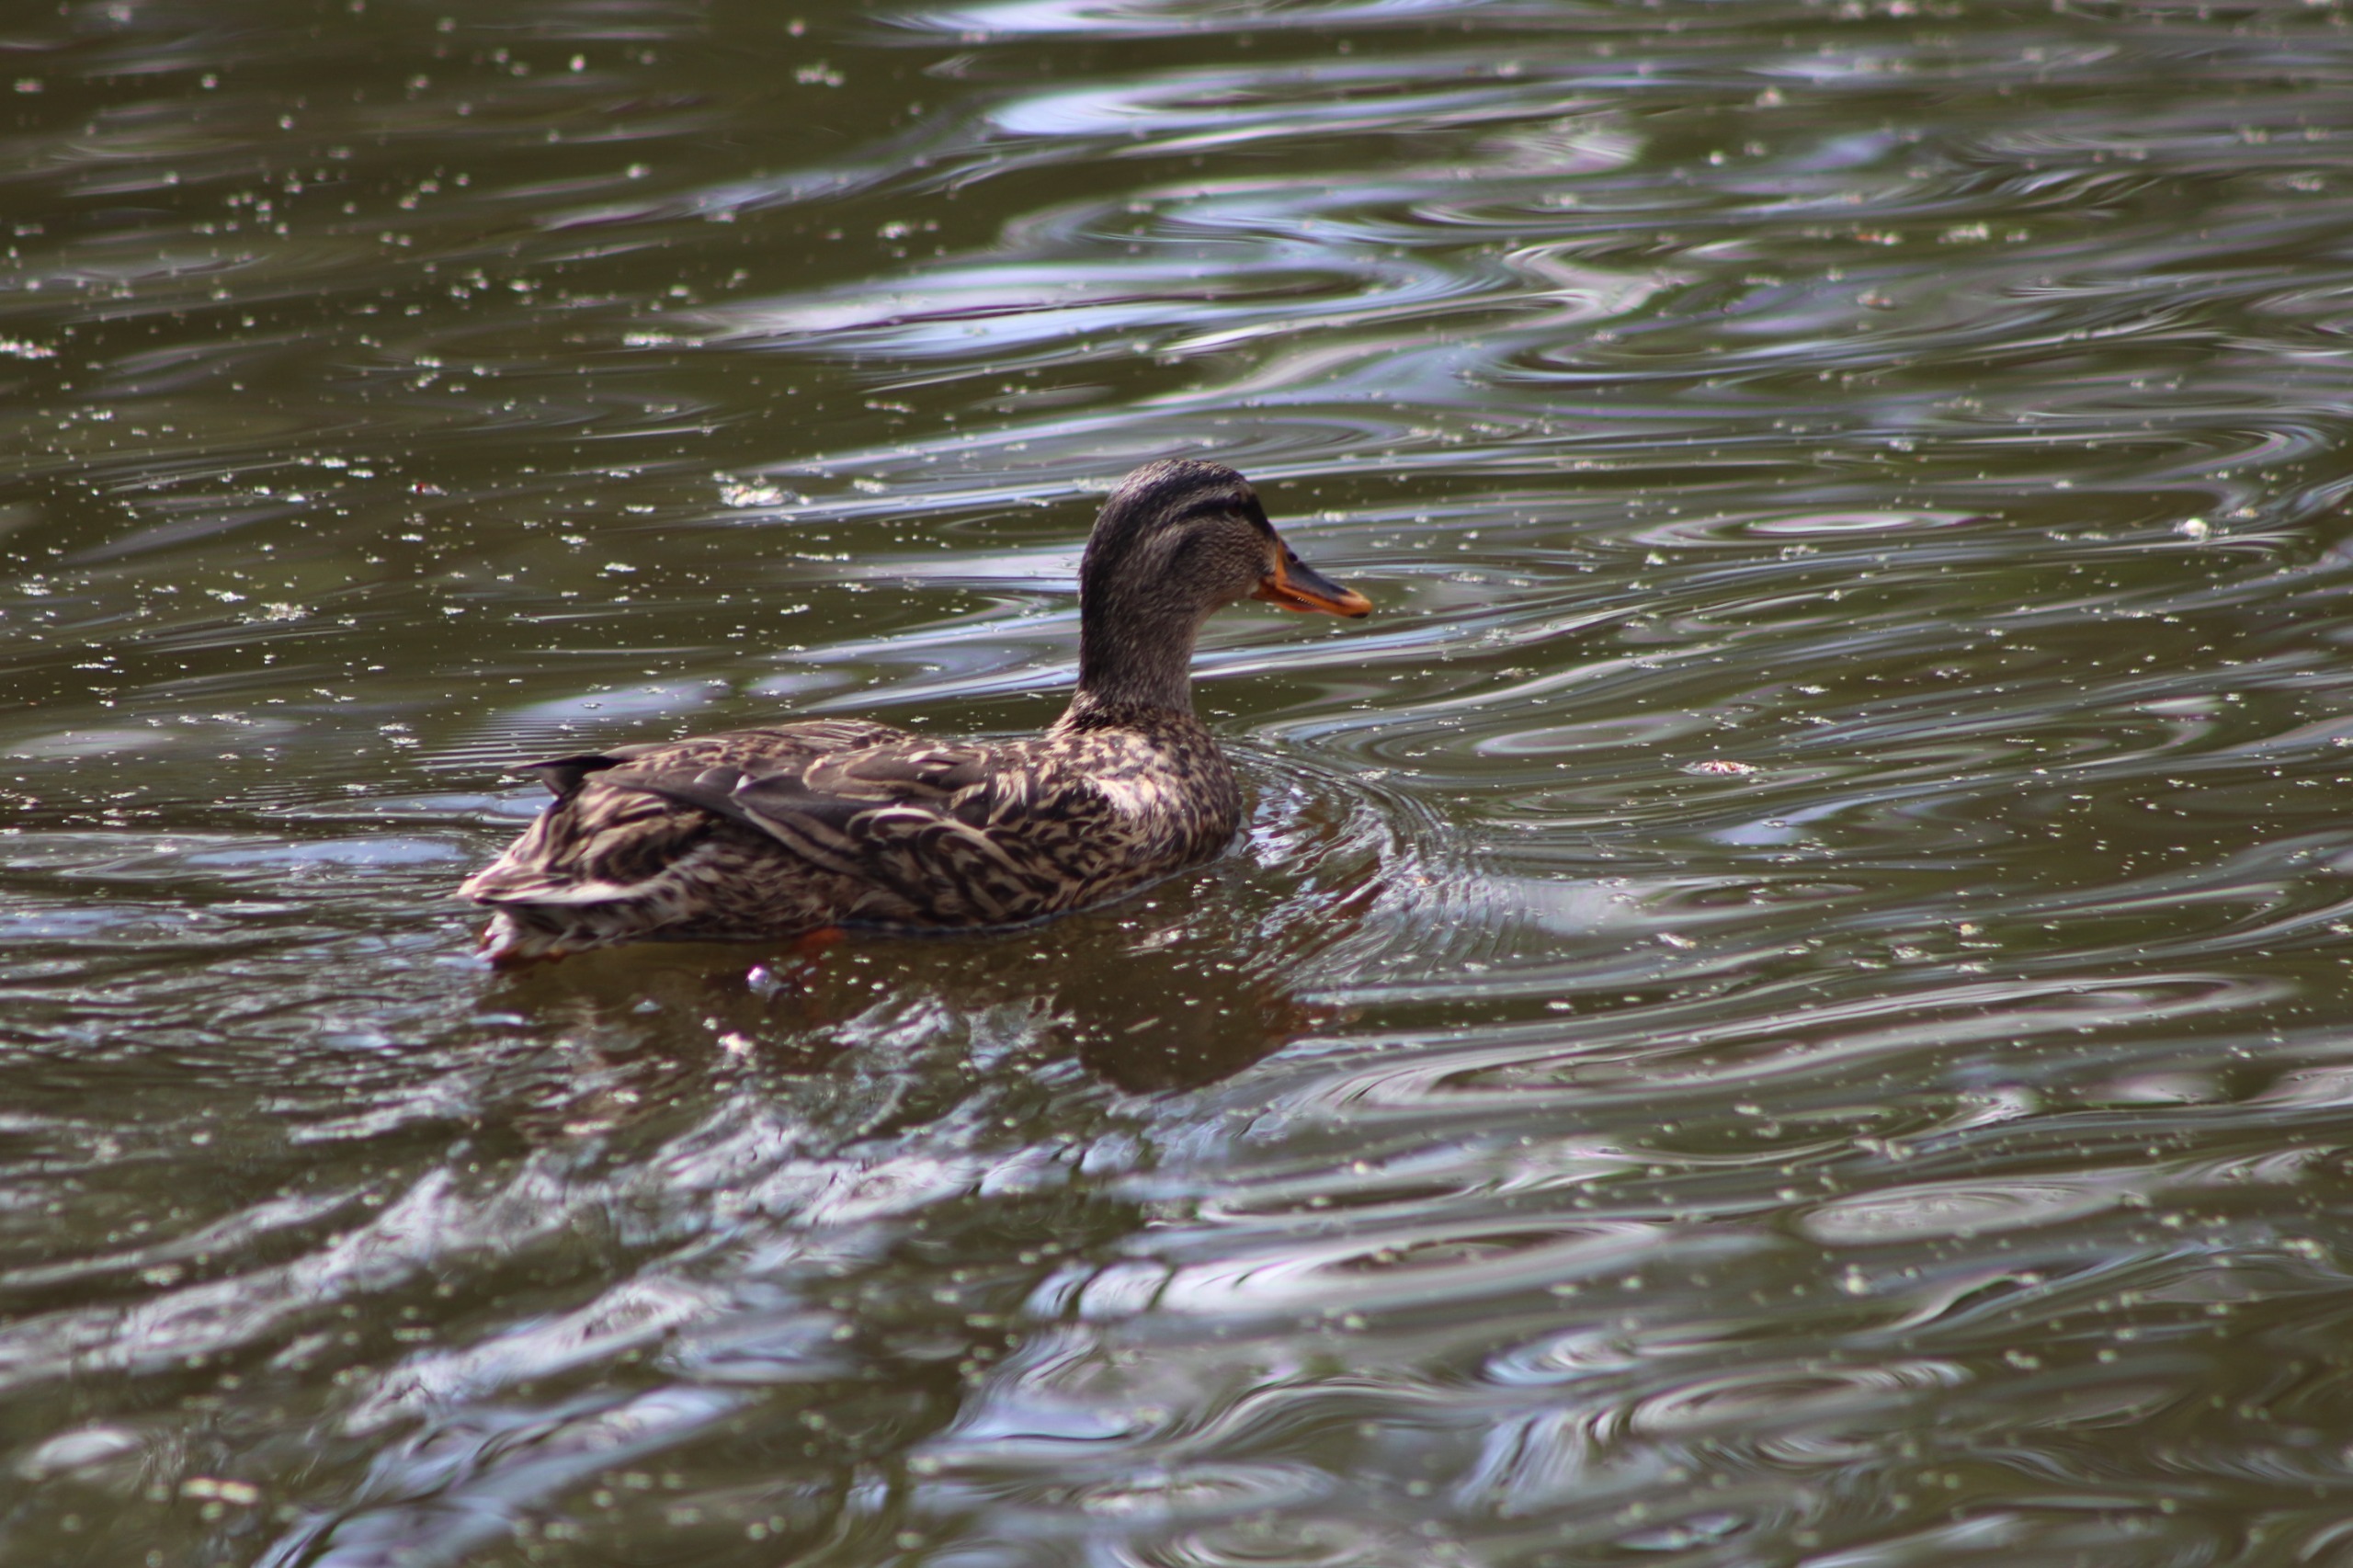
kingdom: Animalia
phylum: Chordata
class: Aves
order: Anseriformes
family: Anatidae
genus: Anas
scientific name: Anas platyrhynchos
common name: Gråand
